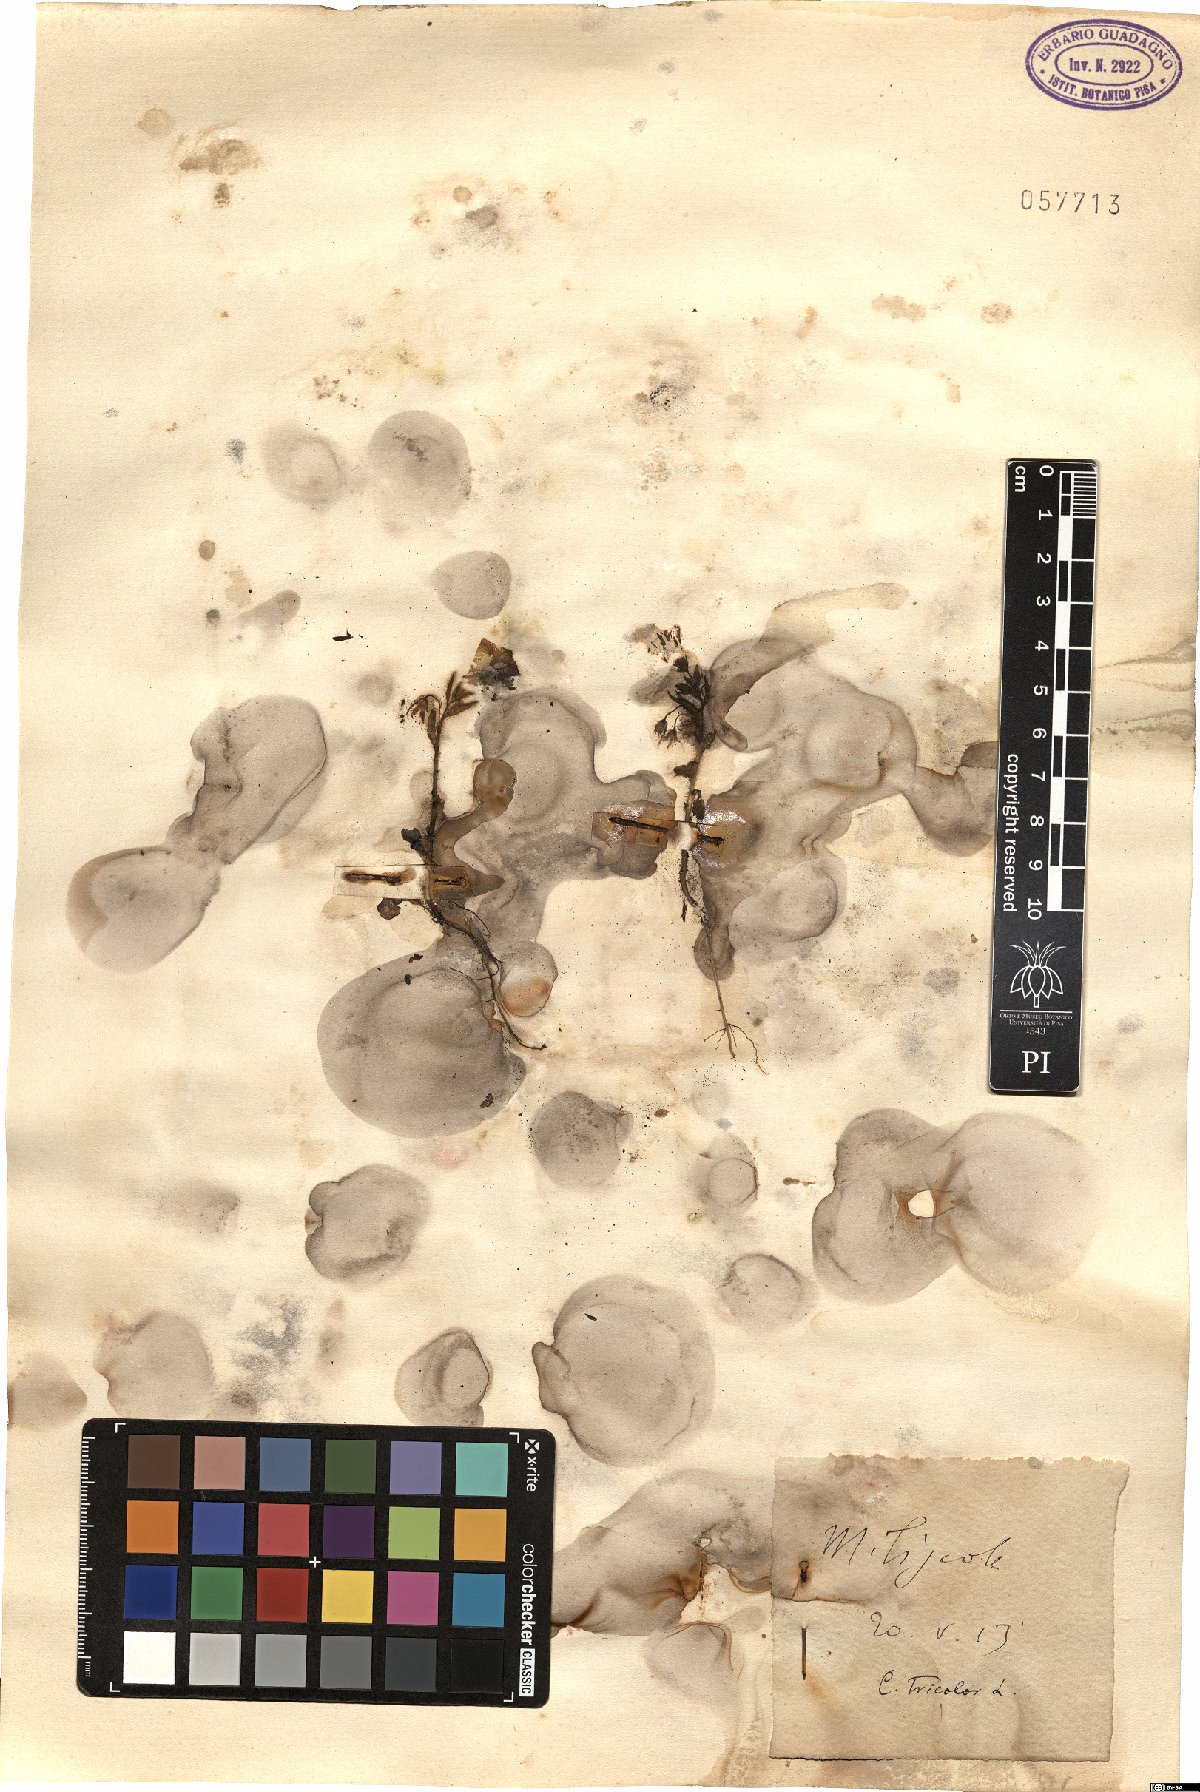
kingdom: Plantae
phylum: Tracheophyta
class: Magnoliopsida
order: Solanales
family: Convolvulaceae
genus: Convolvulus
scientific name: Convolvulus tricolor
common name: Dwarf morning-glory
